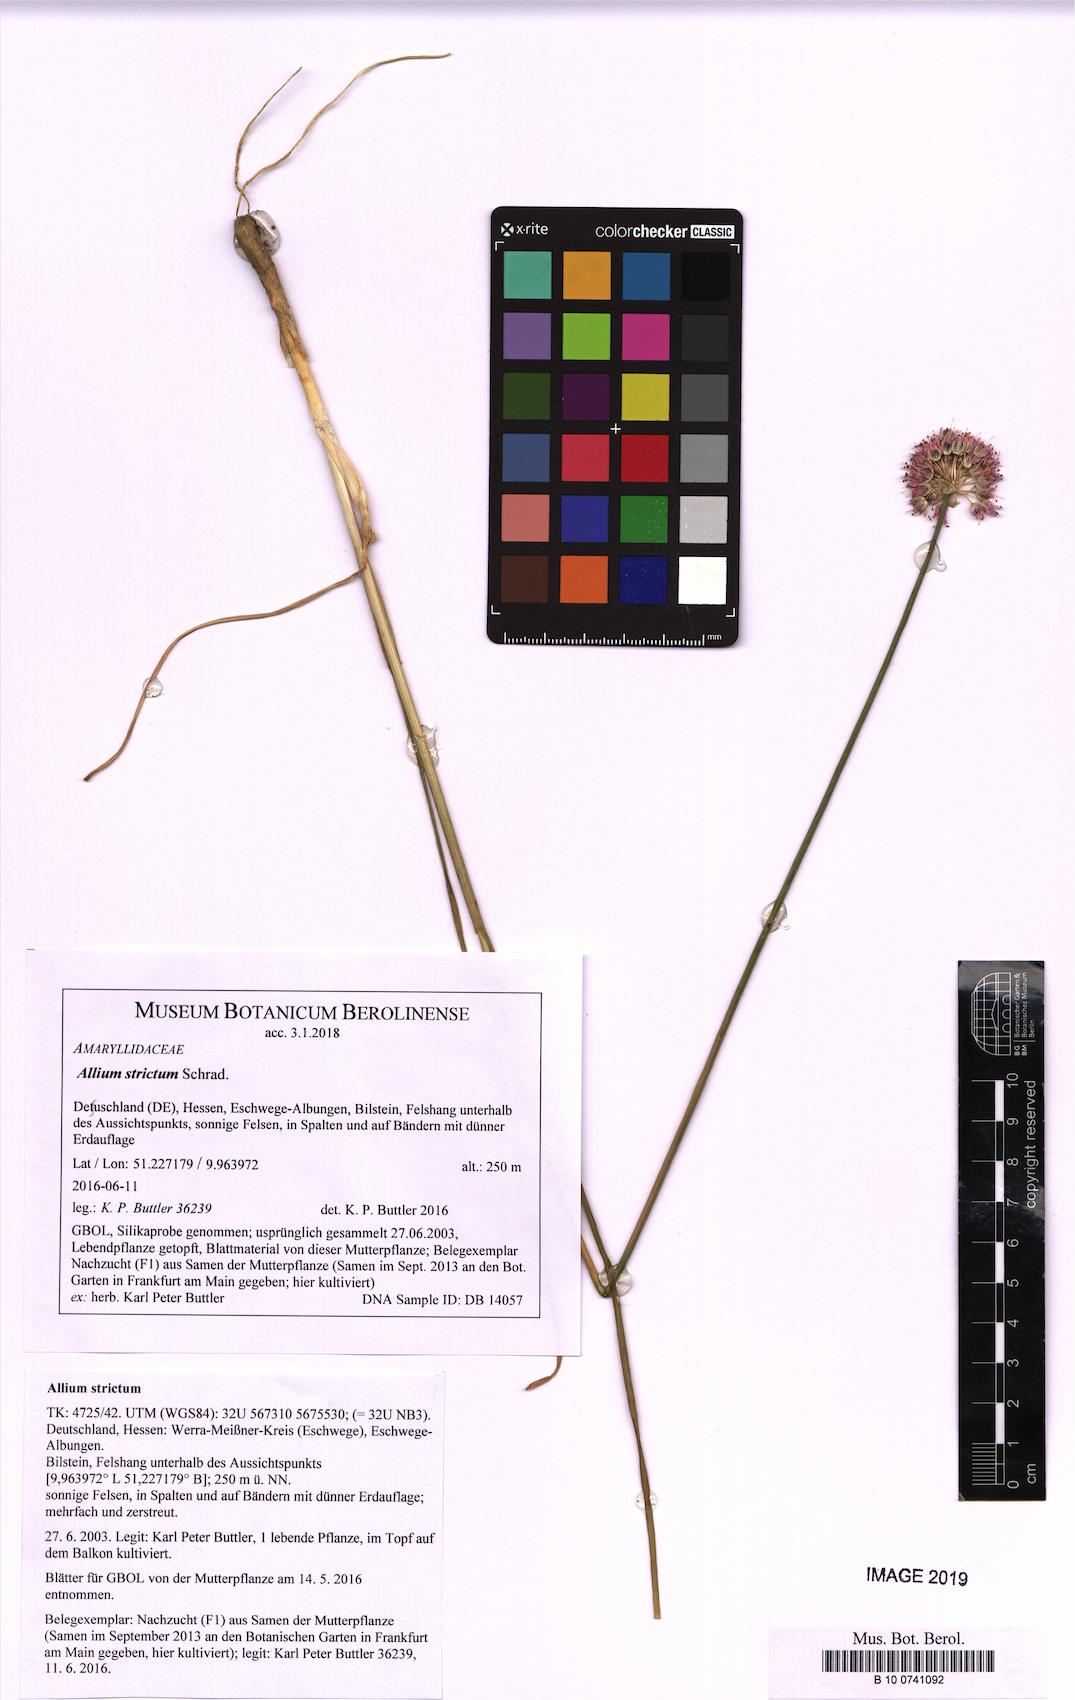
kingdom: Plantae
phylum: Tracheophyta
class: Liliopsida
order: Asparagales
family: Amaryllidaceae
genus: Allium
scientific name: Allium strictum
